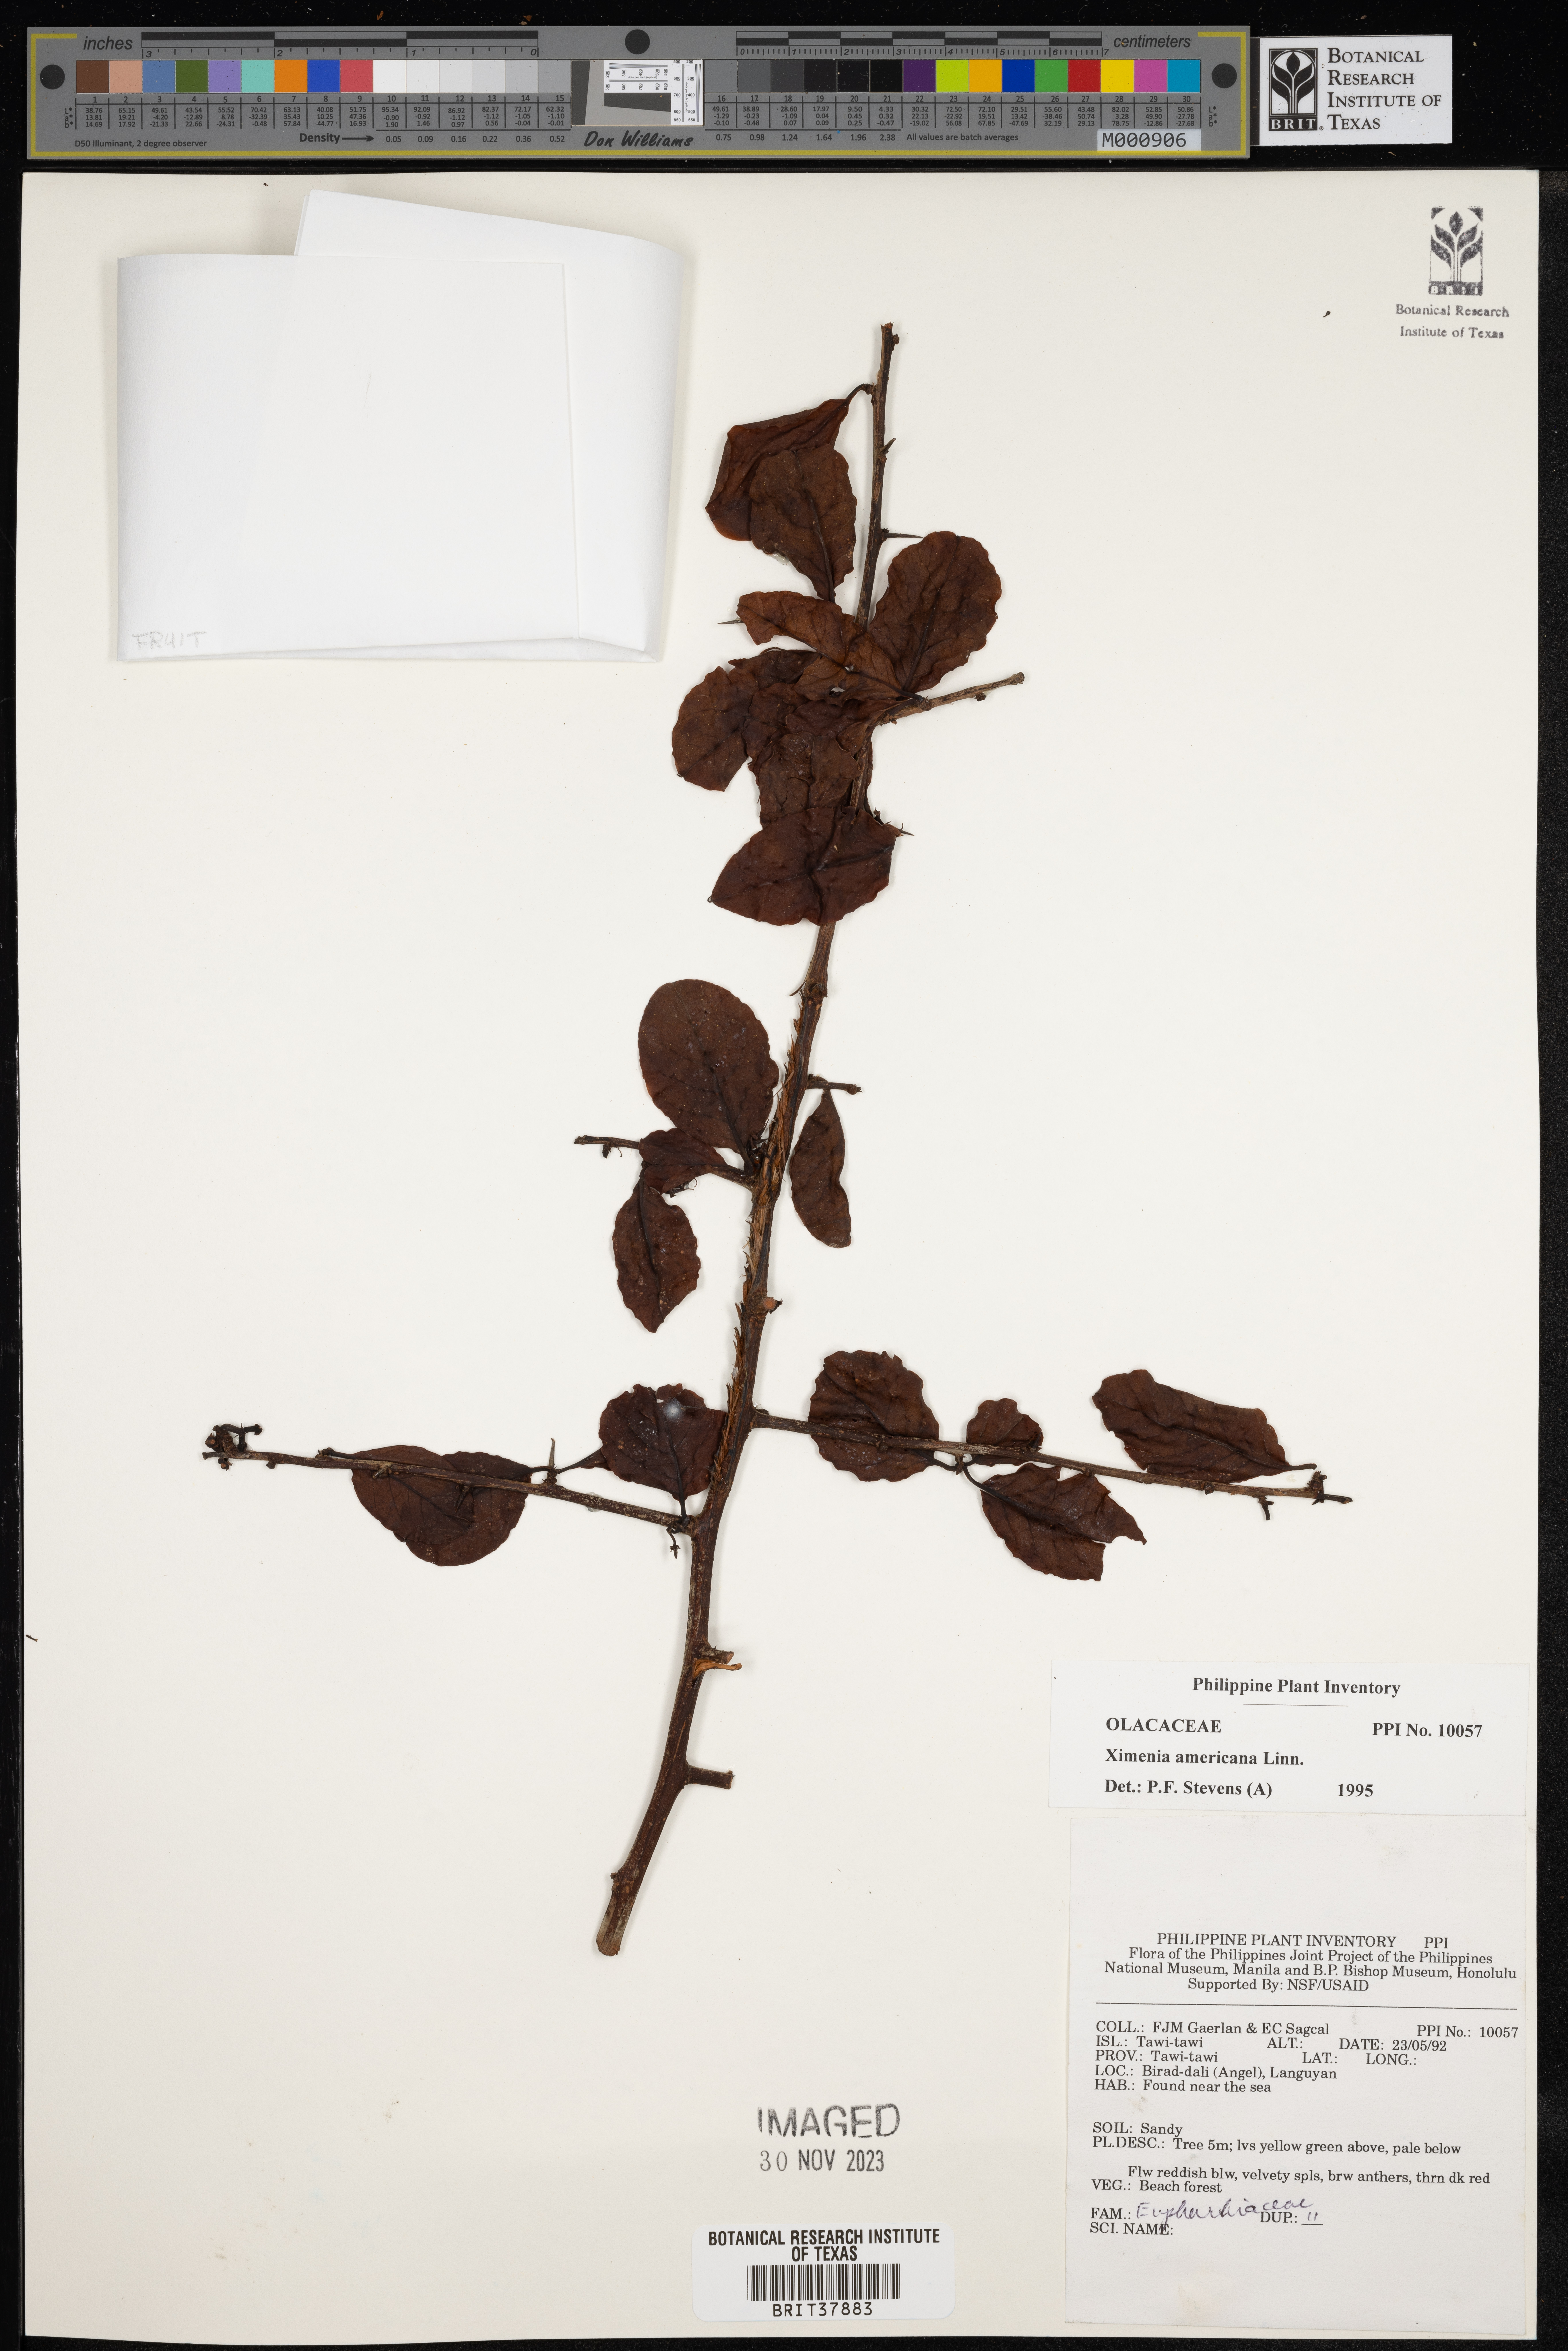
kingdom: Plantae
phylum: Tracheophyta
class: Magnoliopsida
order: Santalales
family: Ximeniaceae
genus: Ximenia
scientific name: Ximenia americana
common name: Tallowwood
